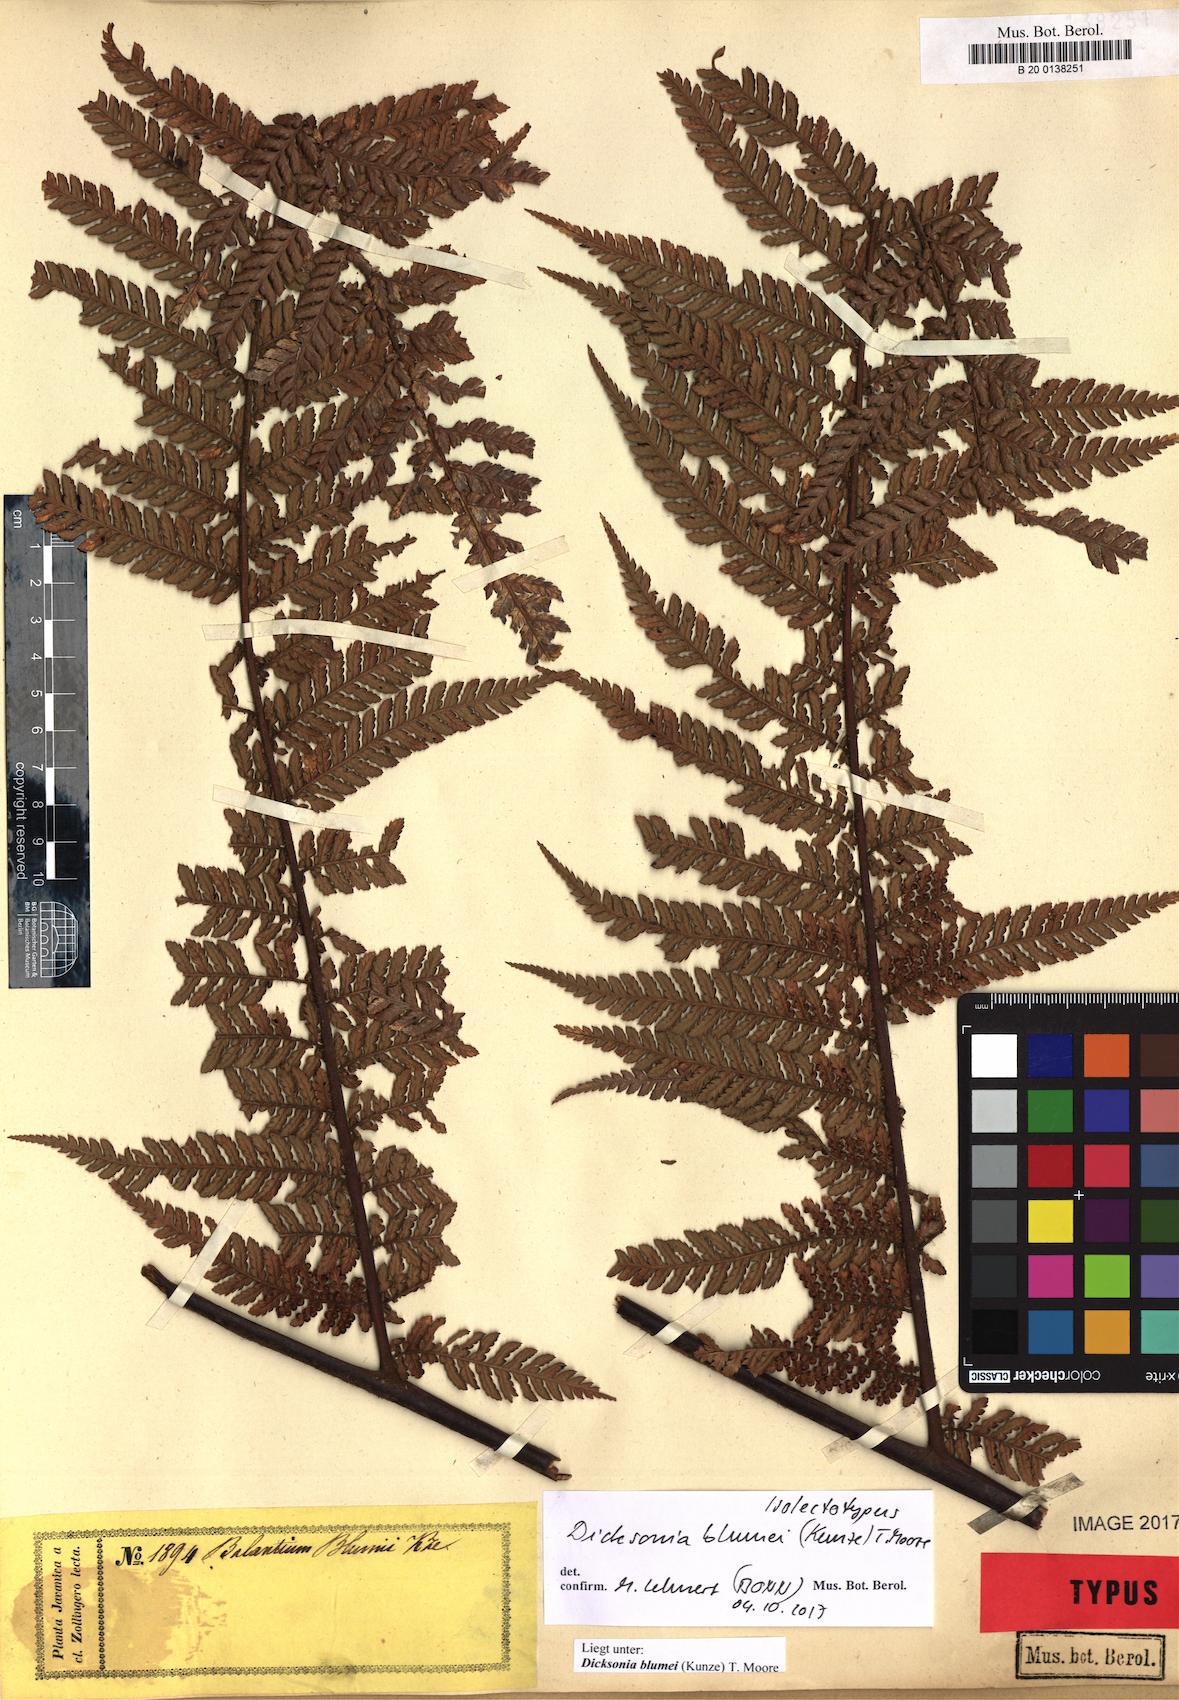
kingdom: Plantae
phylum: Tracheophyta
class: Polypodiopsida
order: Cyatheales
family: Dicksoniaceae
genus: Dicksonia
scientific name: Dicksonia blumei
